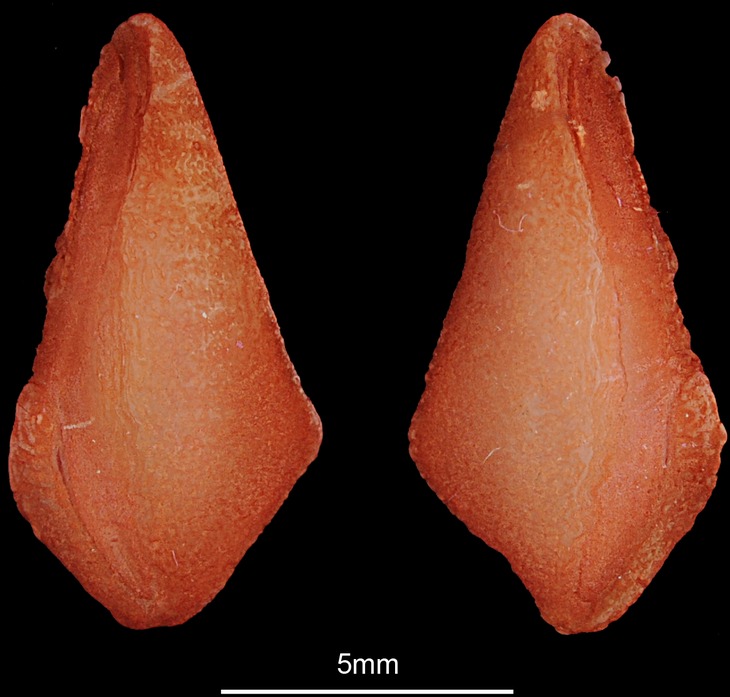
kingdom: Animalia
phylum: Chordata
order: Osteoglossiformes
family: Arapaimidae
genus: Heterotis
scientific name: Heterotis niloticus
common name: African bonytongue
